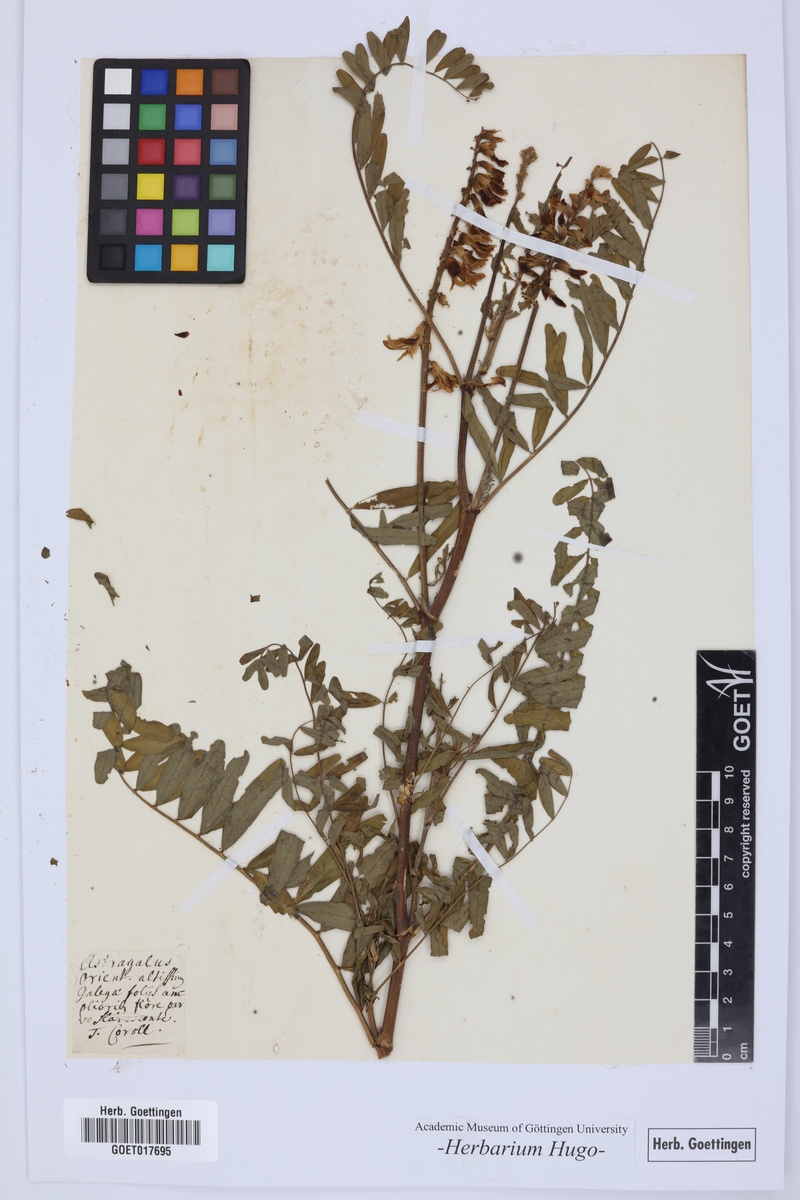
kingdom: Plantae
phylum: Tracheophyta
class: Magnoliopsida
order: Fabales
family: Fabaceae
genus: Astragalus
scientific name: Astragalus
